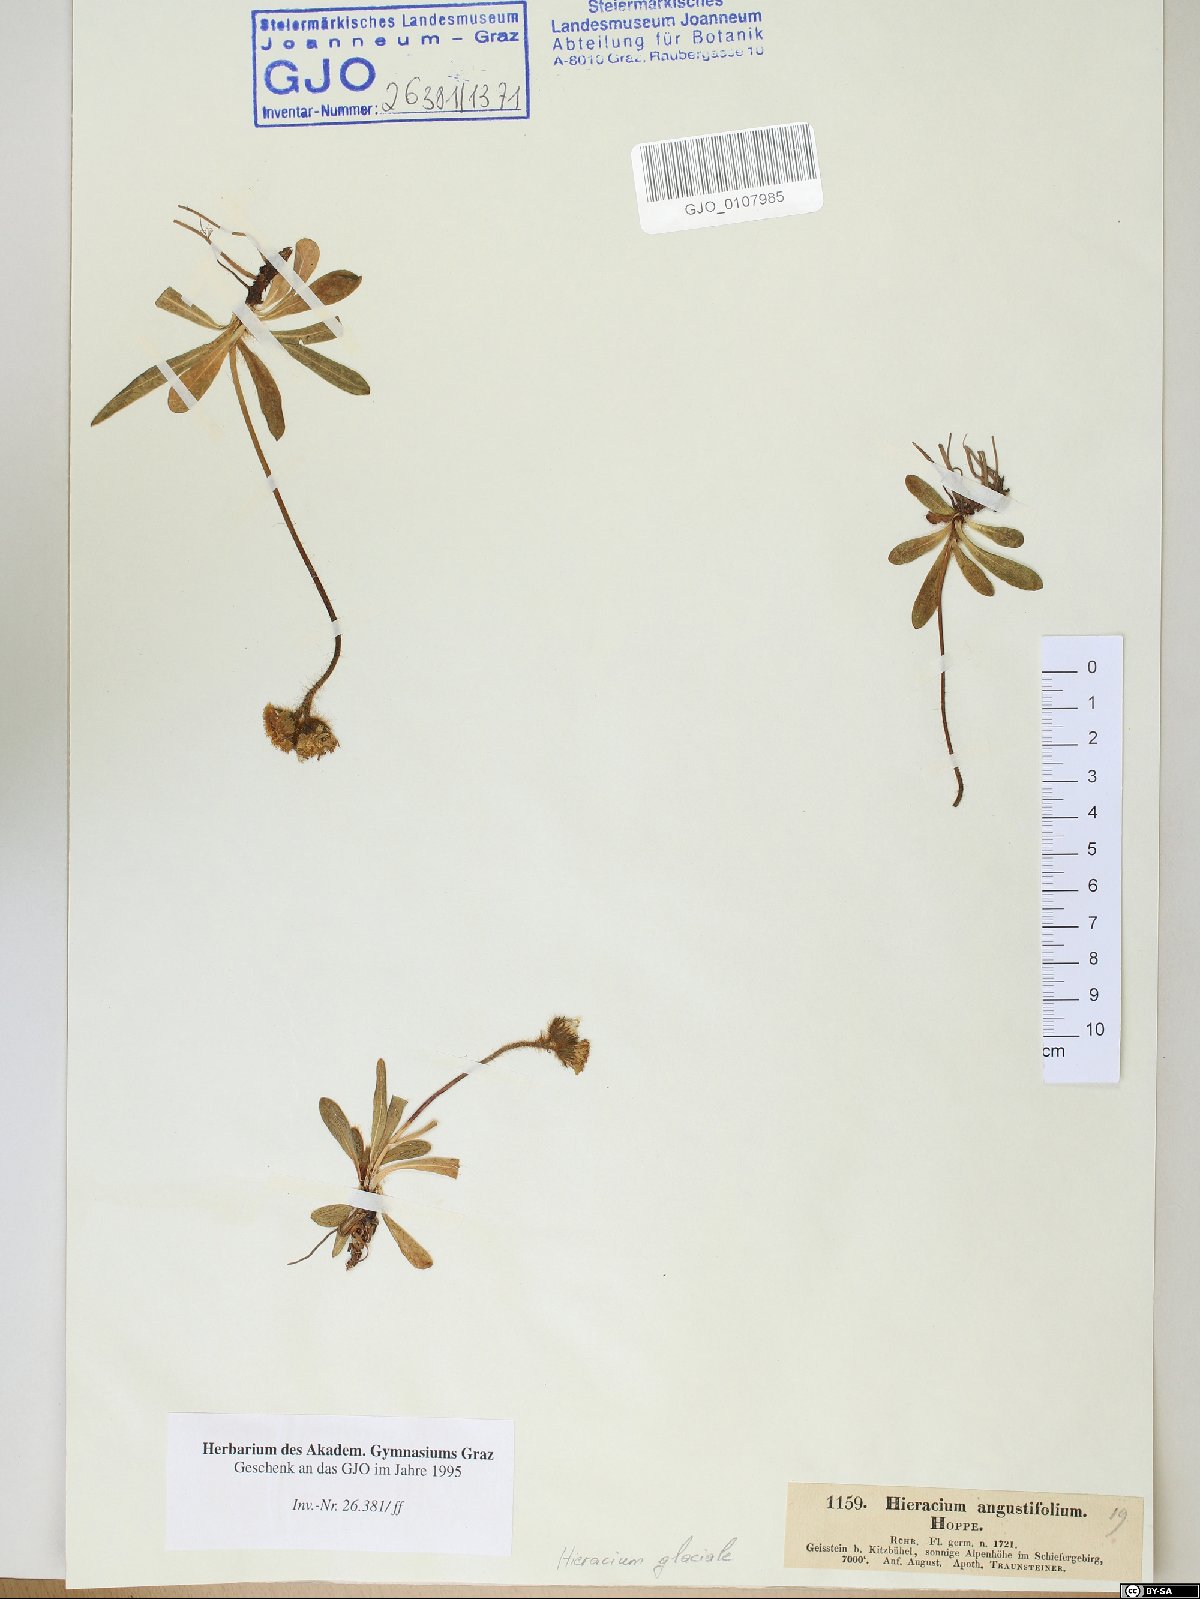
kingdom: Plantae
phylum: Tracheophyta
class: Magnoliopsida
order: Asterales
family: Asteraceae
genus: Pilosella
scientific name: Pilosella glacialis
